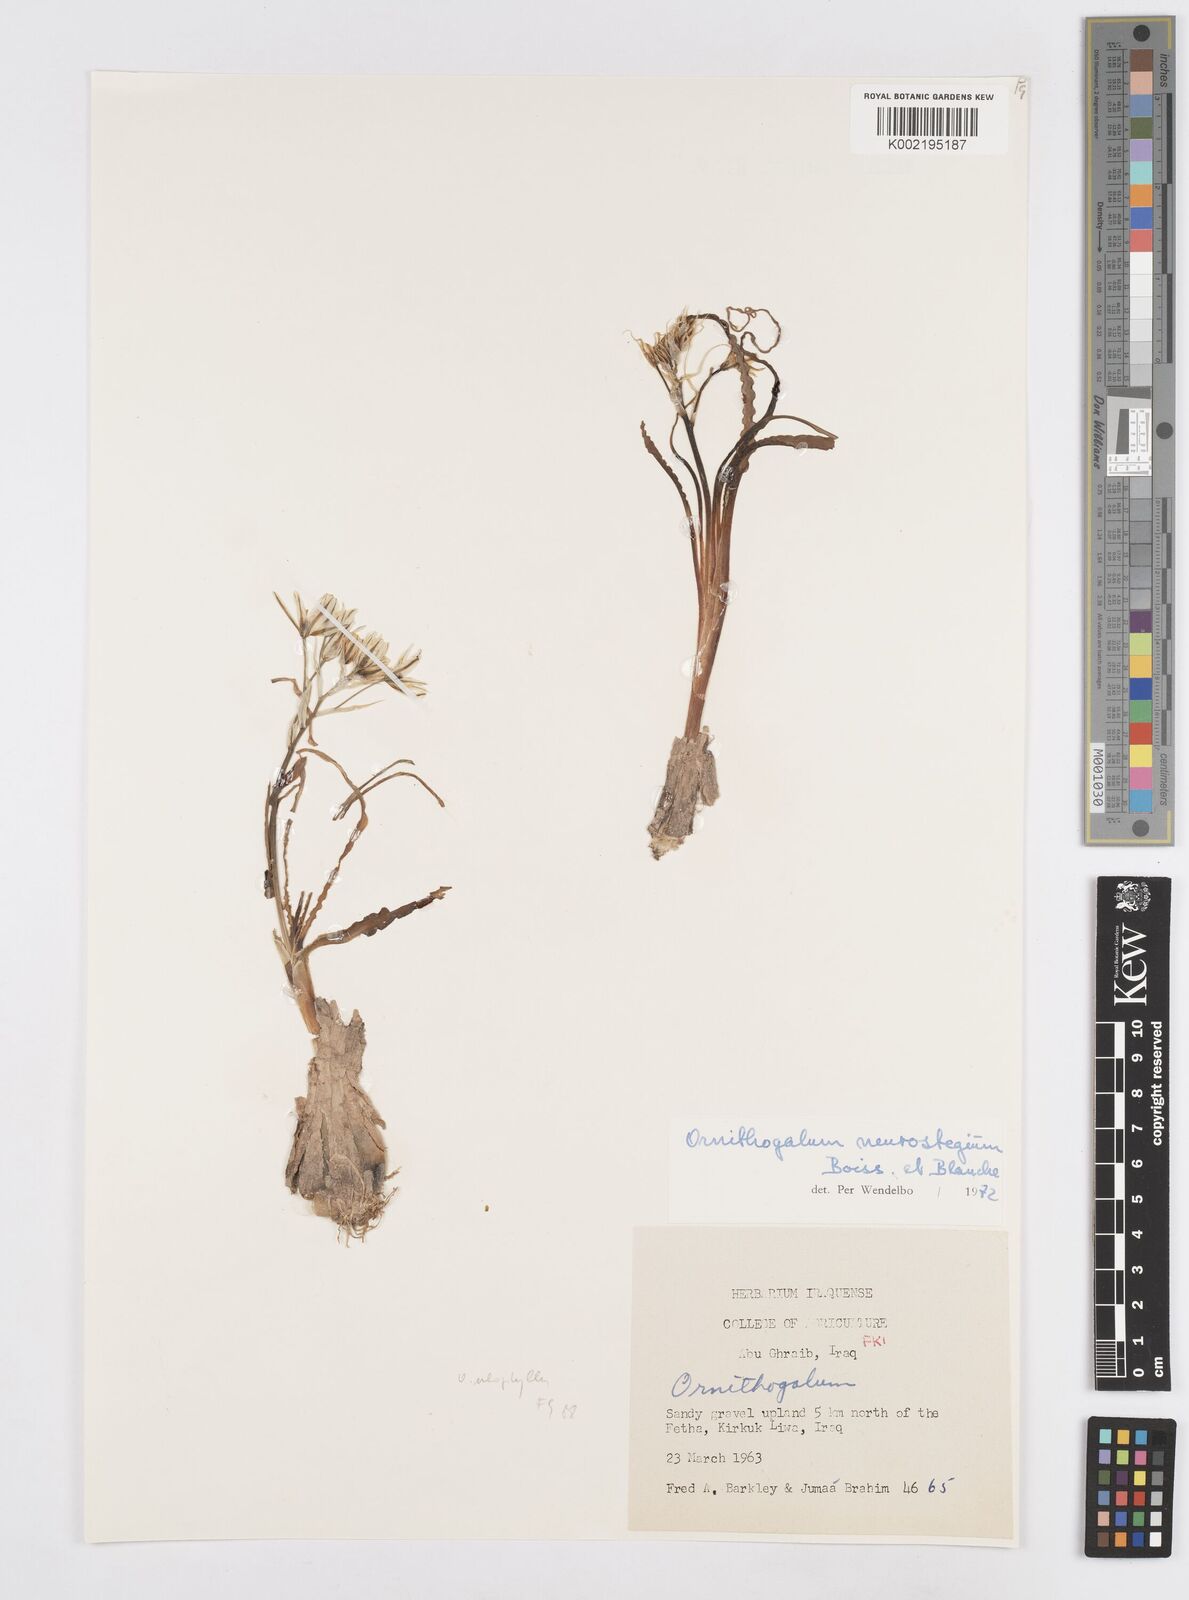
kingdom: Plantae
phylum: Tracheophyta
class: Liliopsida
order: Asparagales
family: Asparagaceae
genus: Ornithogalum
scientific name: Ornithogalum neurostegium
